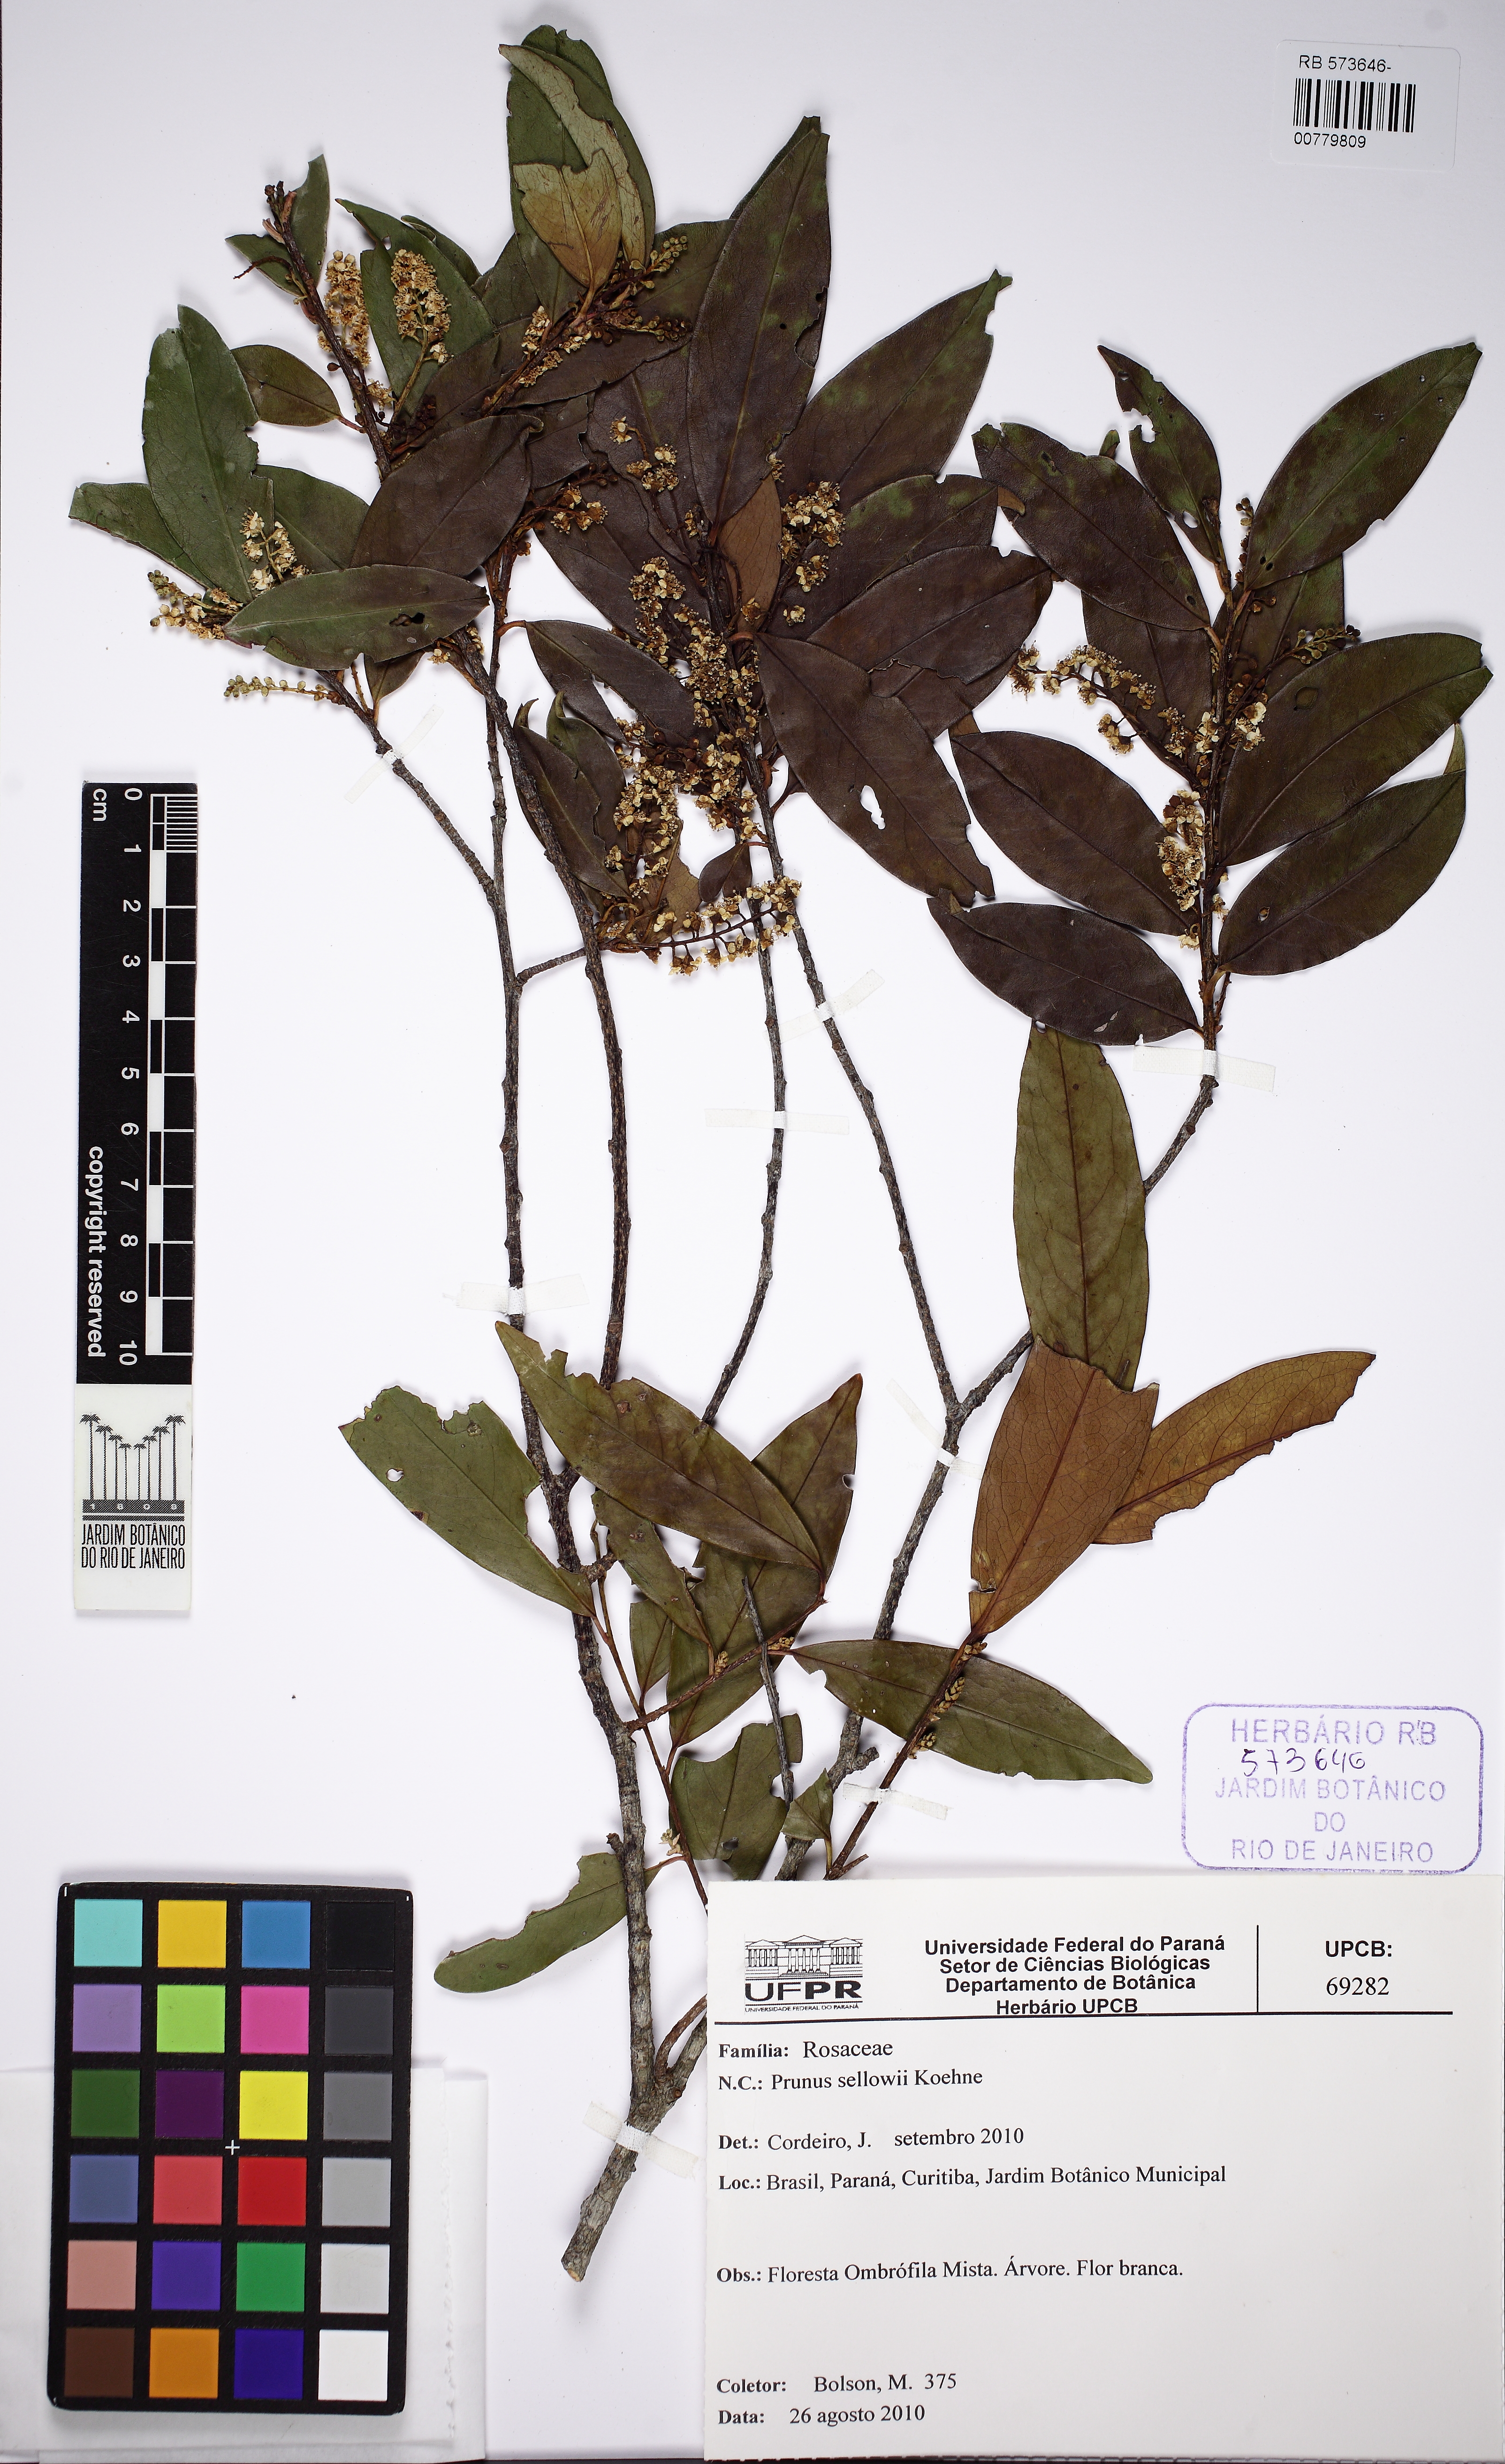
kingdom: Plantae
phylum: Tracheophyta
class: Magnoliopsida
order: Rosales
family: Rosaceae
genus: Prunus
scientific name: Prunus reflexa
